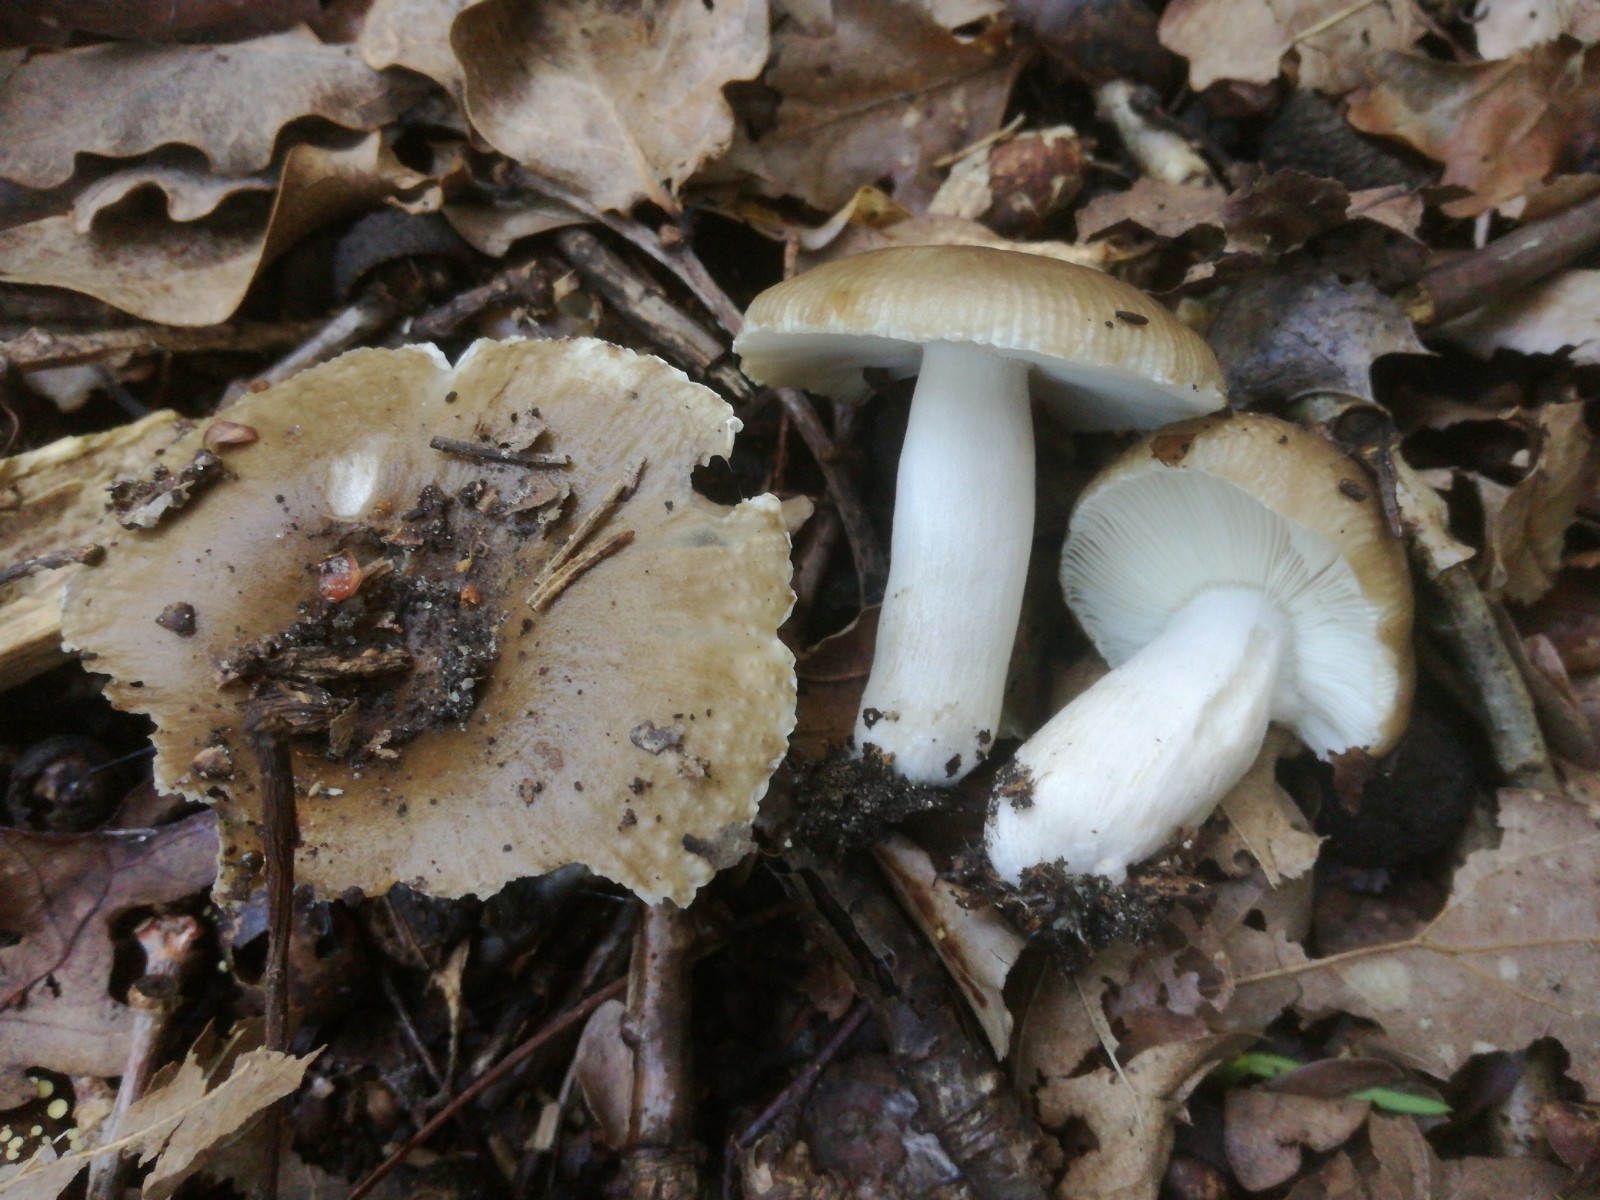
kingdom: Fungi
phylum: Basidiomycota
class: Agaricomycetes
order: Russulales
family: Russulaceae
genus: Russula
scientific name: Russula amoenolens
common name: skarp kam-skørhat
